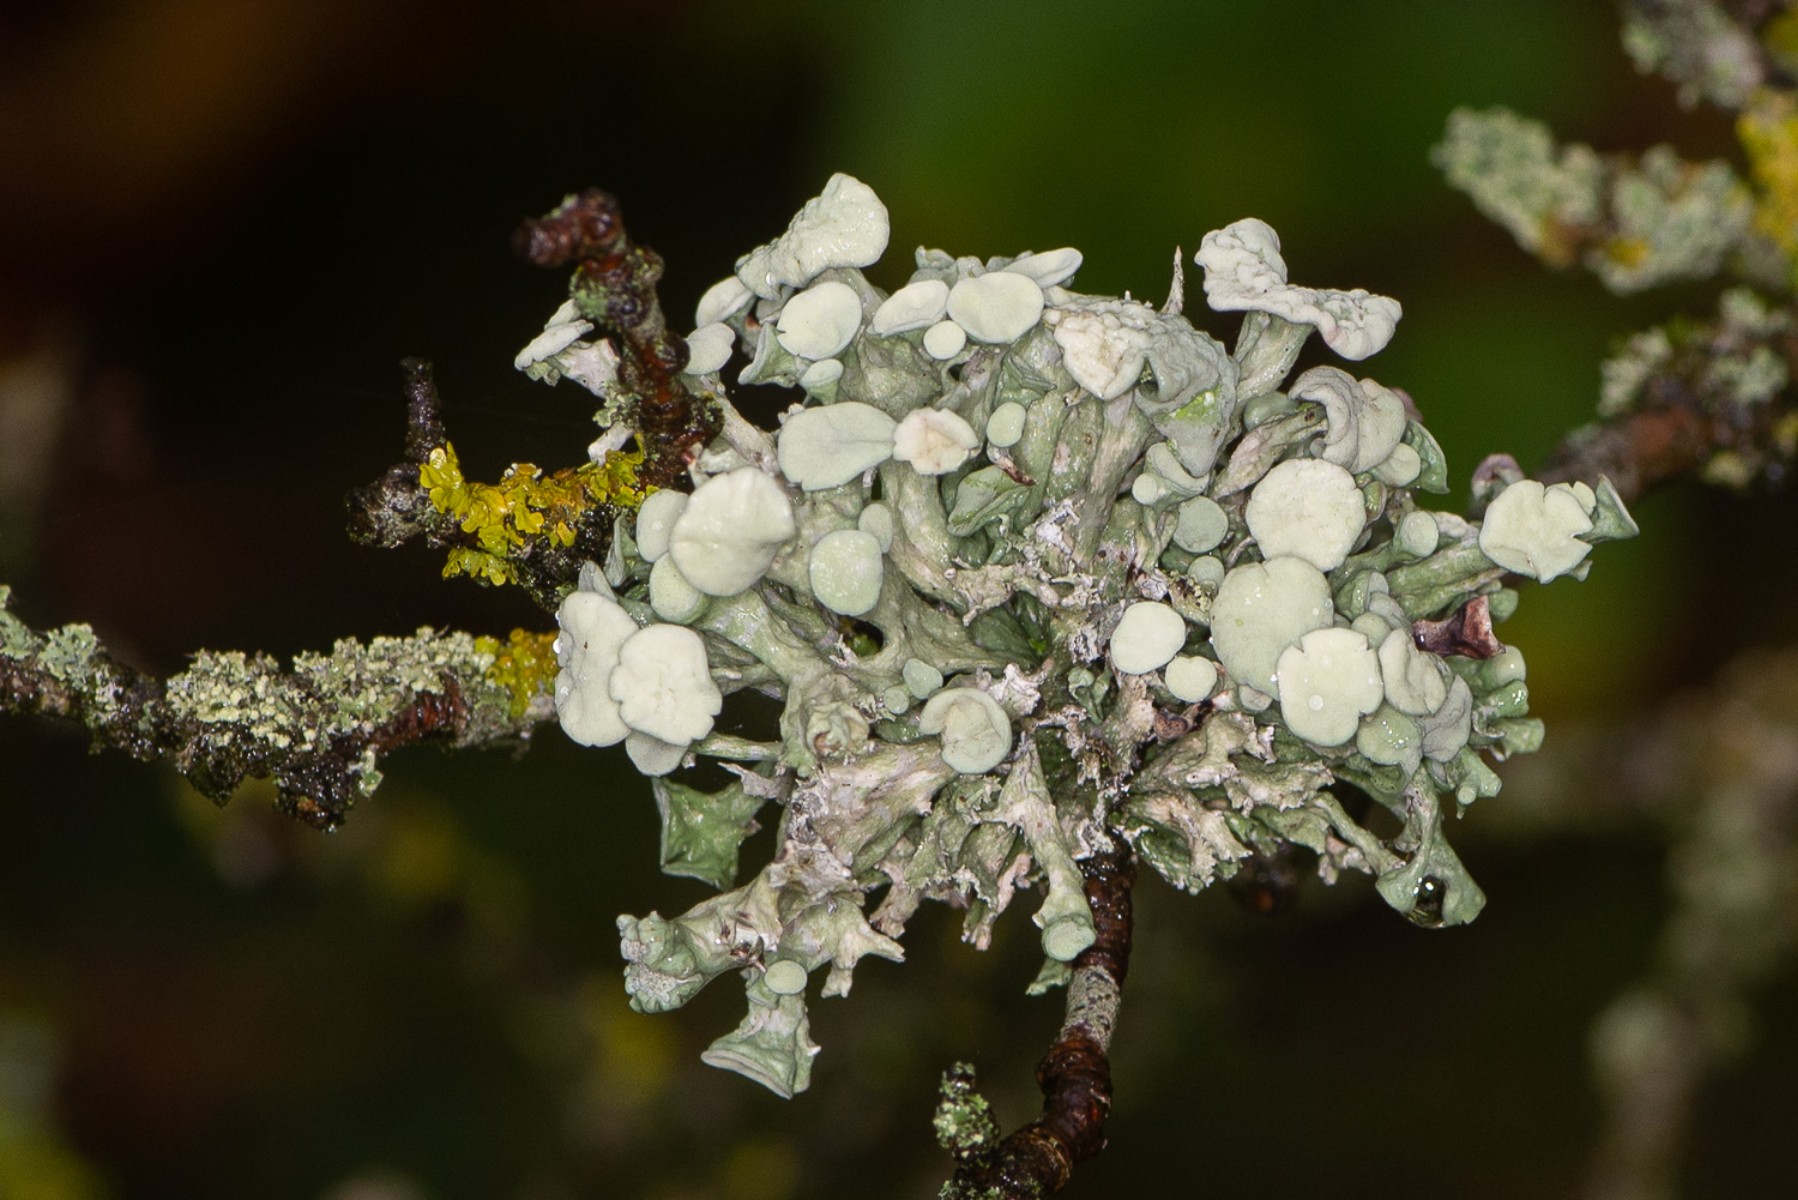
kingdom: Fungi
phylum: Ascomycota
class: Lecanoromycetes
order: Lecanorales
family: Ramalinaceae
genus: Ramalina
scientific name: Ramalina fastigiata
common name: tue-grenlav
